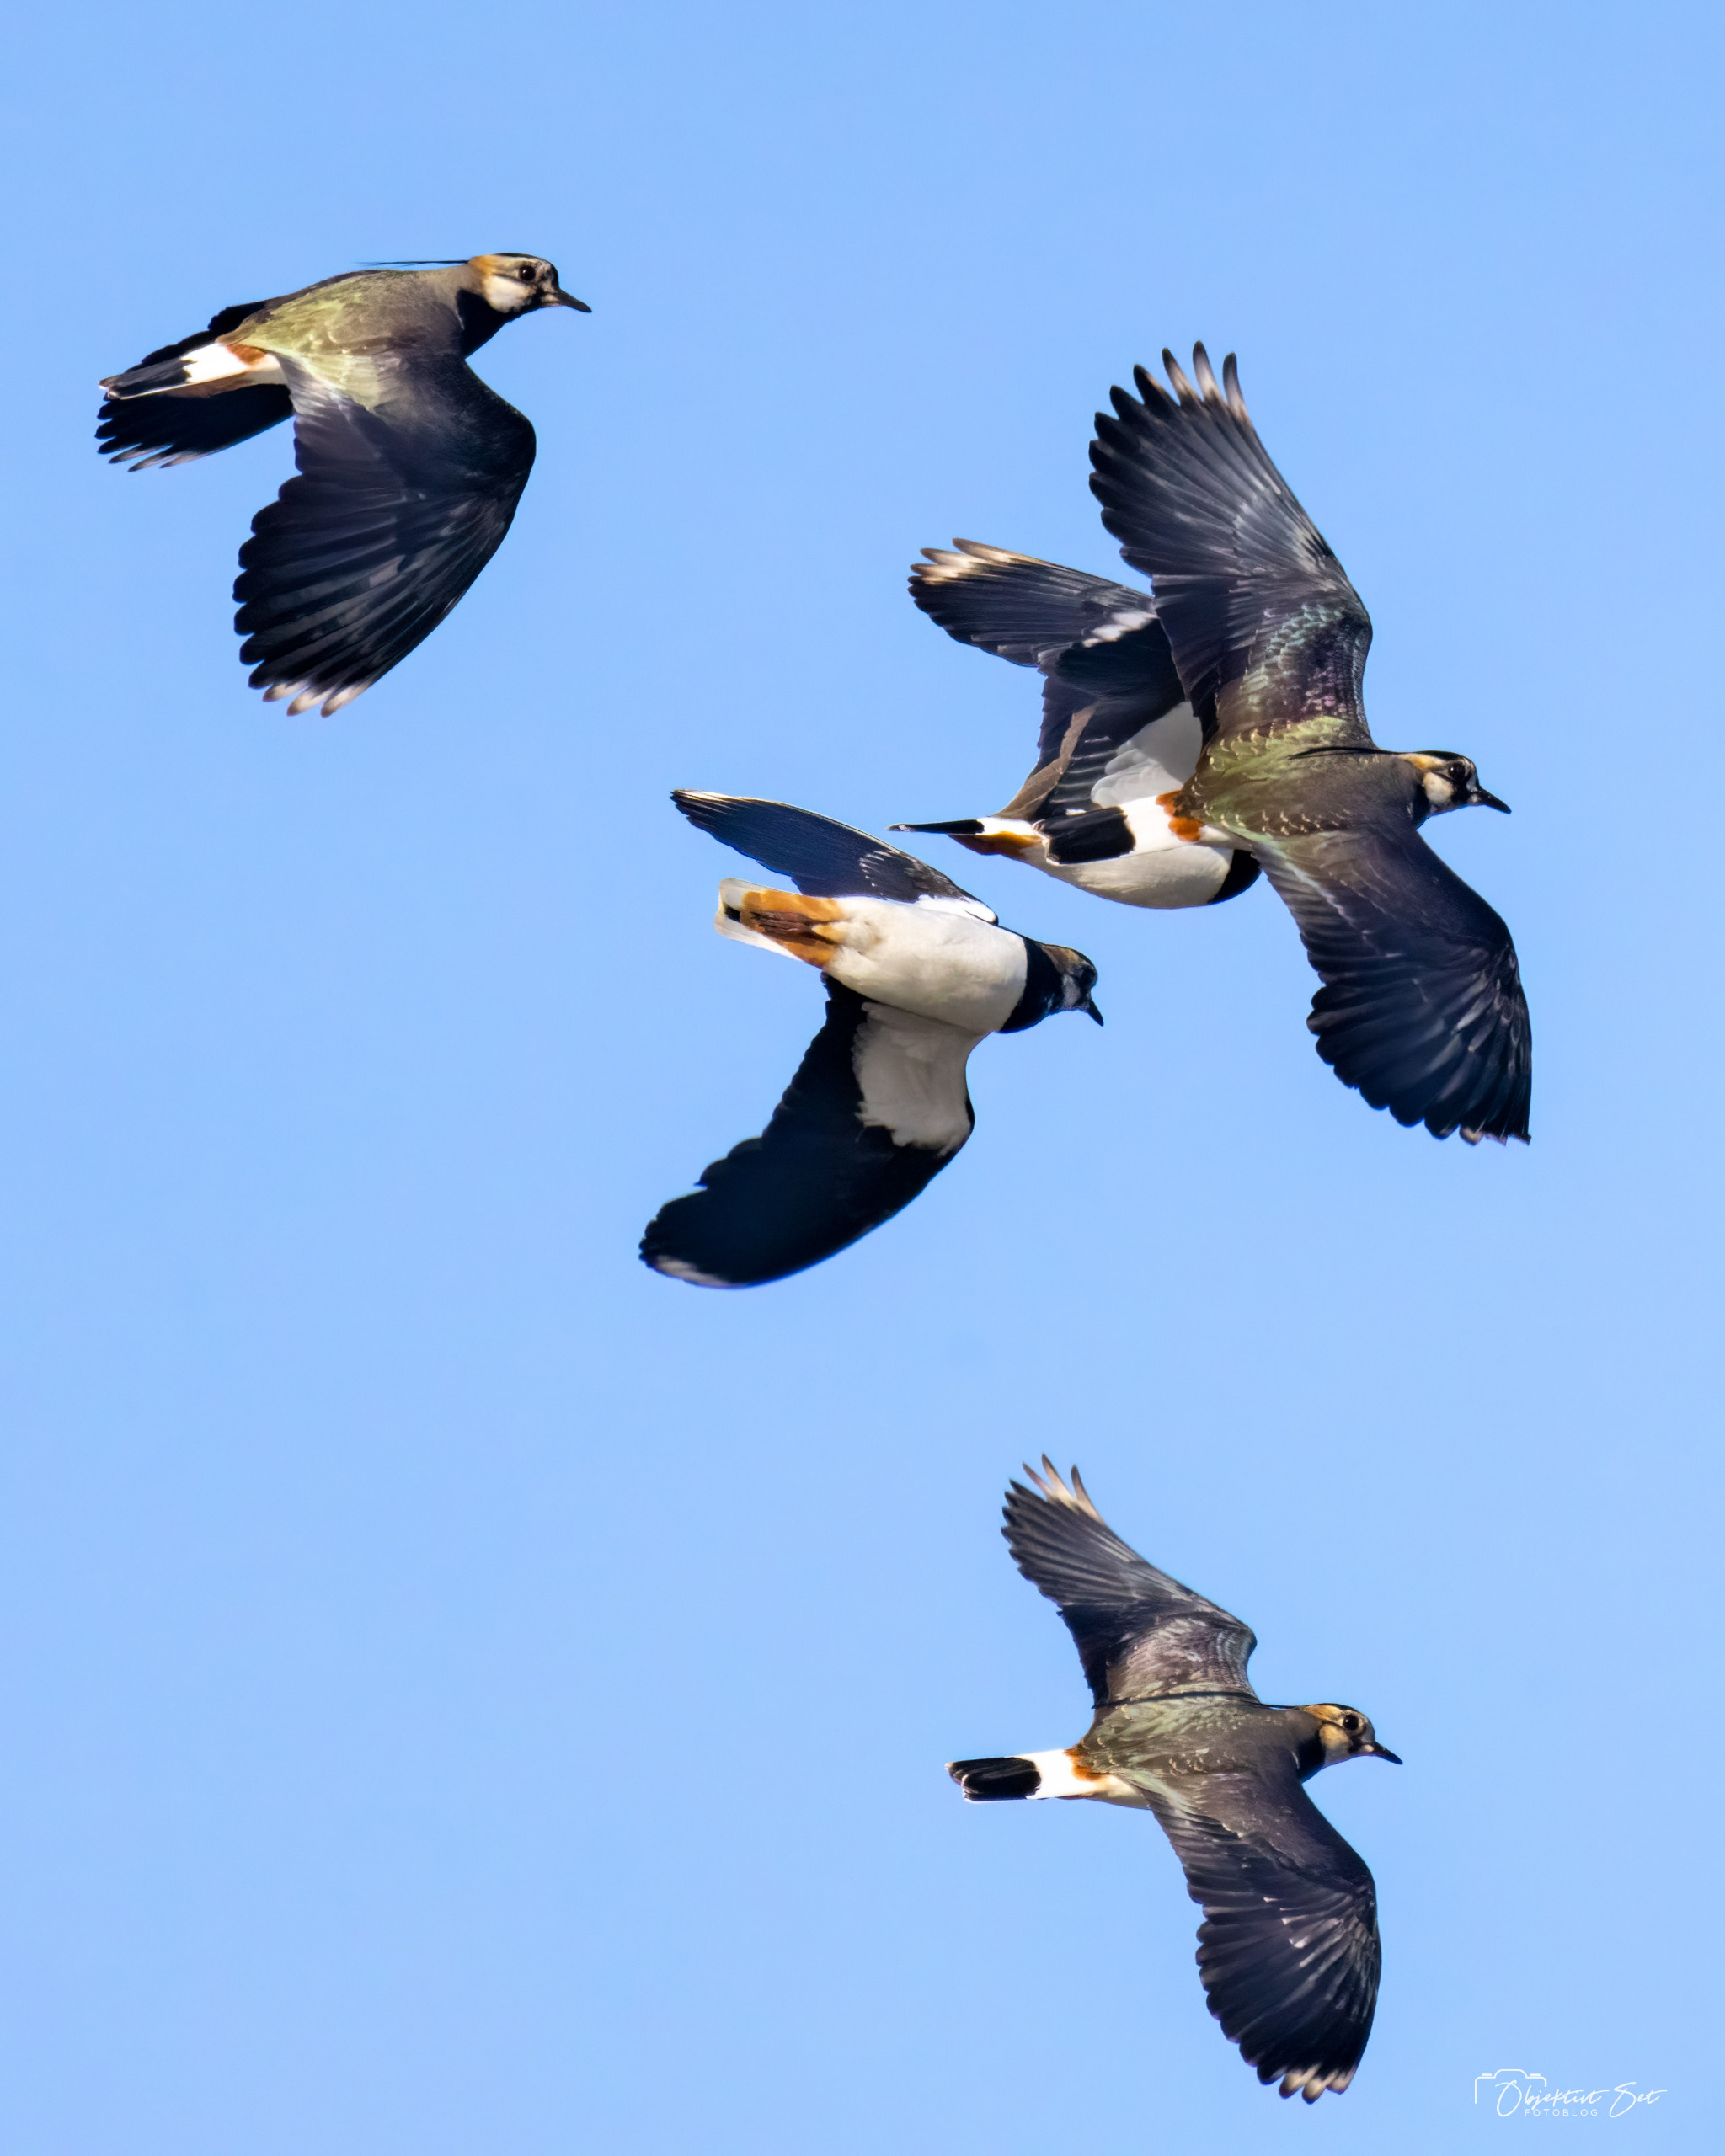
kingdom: Animalia
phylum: Chordata
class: Aves
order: Charadriiformes
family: Charadriidae
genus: Vanellus
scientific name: Vanellus vanellus
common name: Vibe
